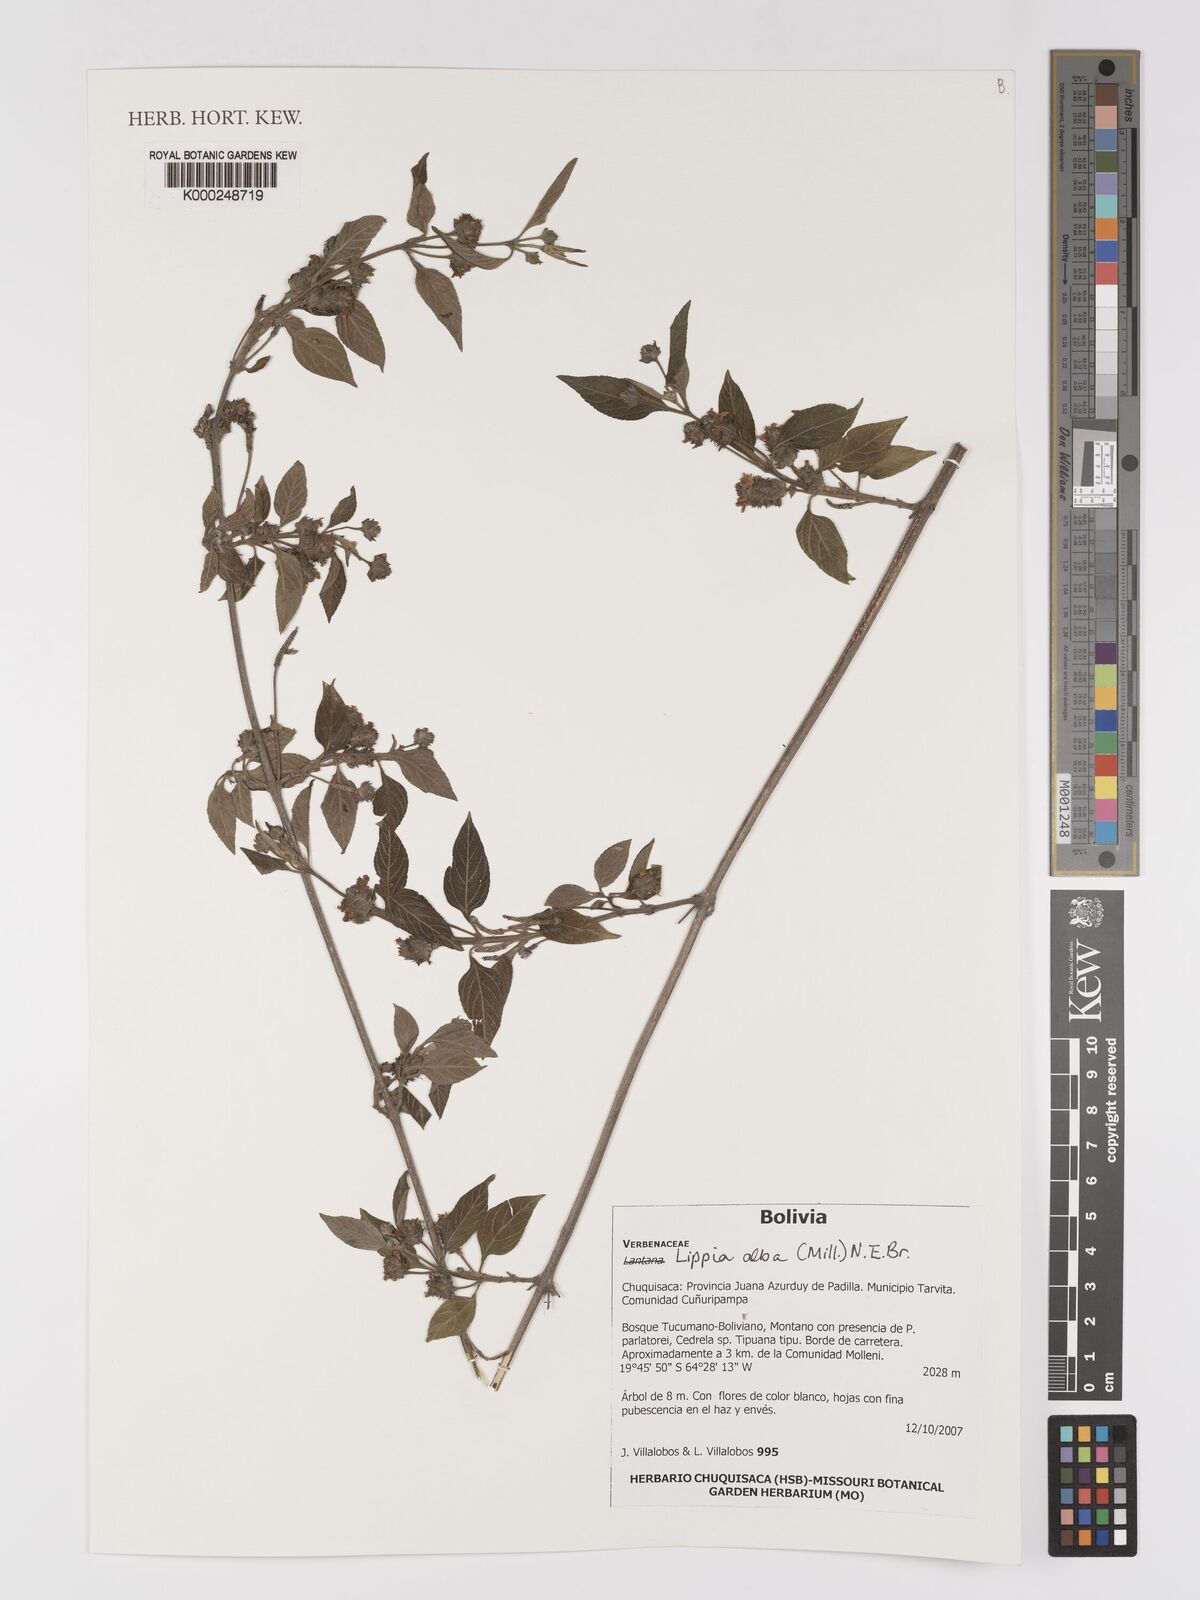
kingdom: Plantae
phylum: Tracheophyta
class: Magnoliopsida
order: Lamiales
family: Verbenaceae
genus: Lippia
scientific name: Lippia
